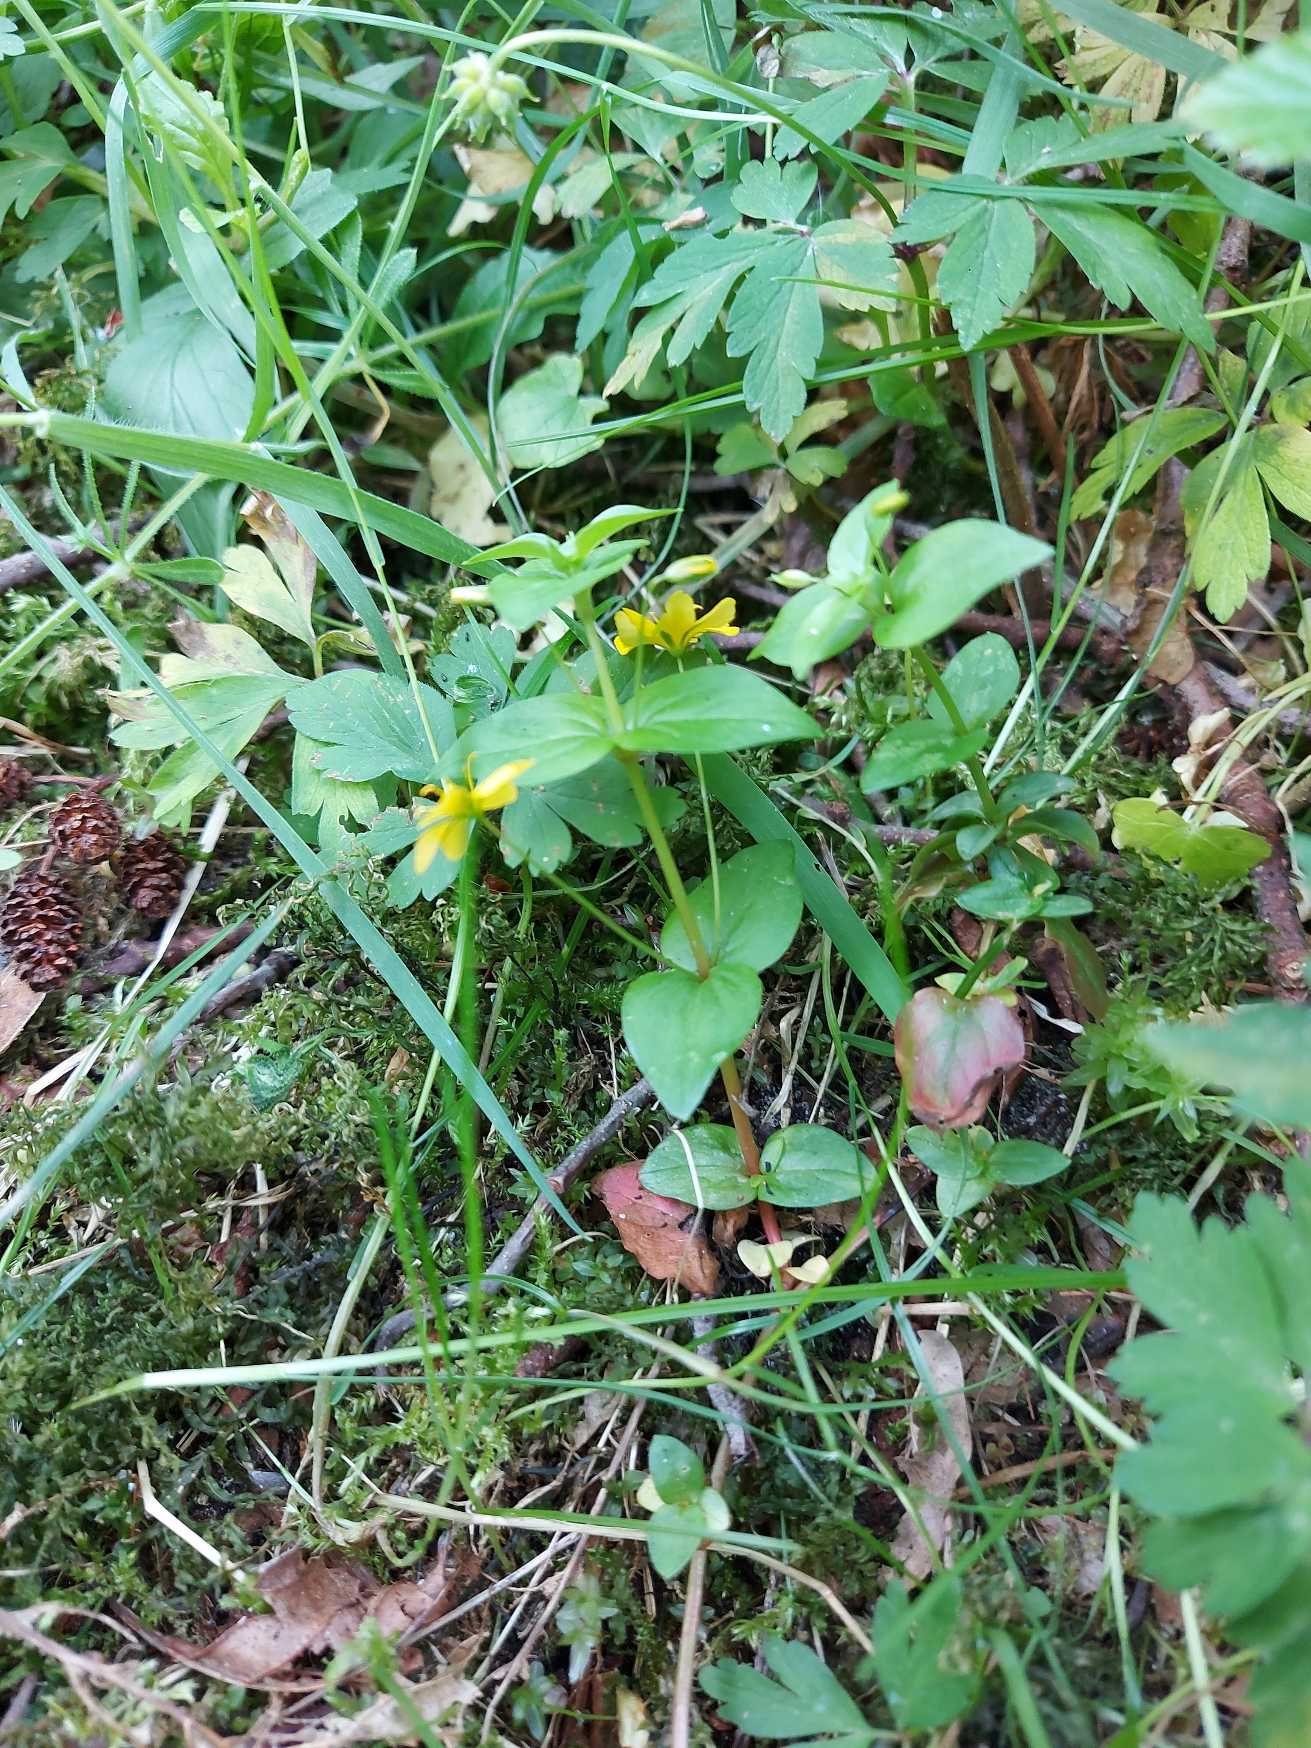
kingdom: Plantae
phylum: Tracheophyta
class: Magnoliopsida
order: Ericales
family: Primulaceae
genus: Lysimachia
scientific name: Lysimachia nemorum
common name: Lund-fredløs
